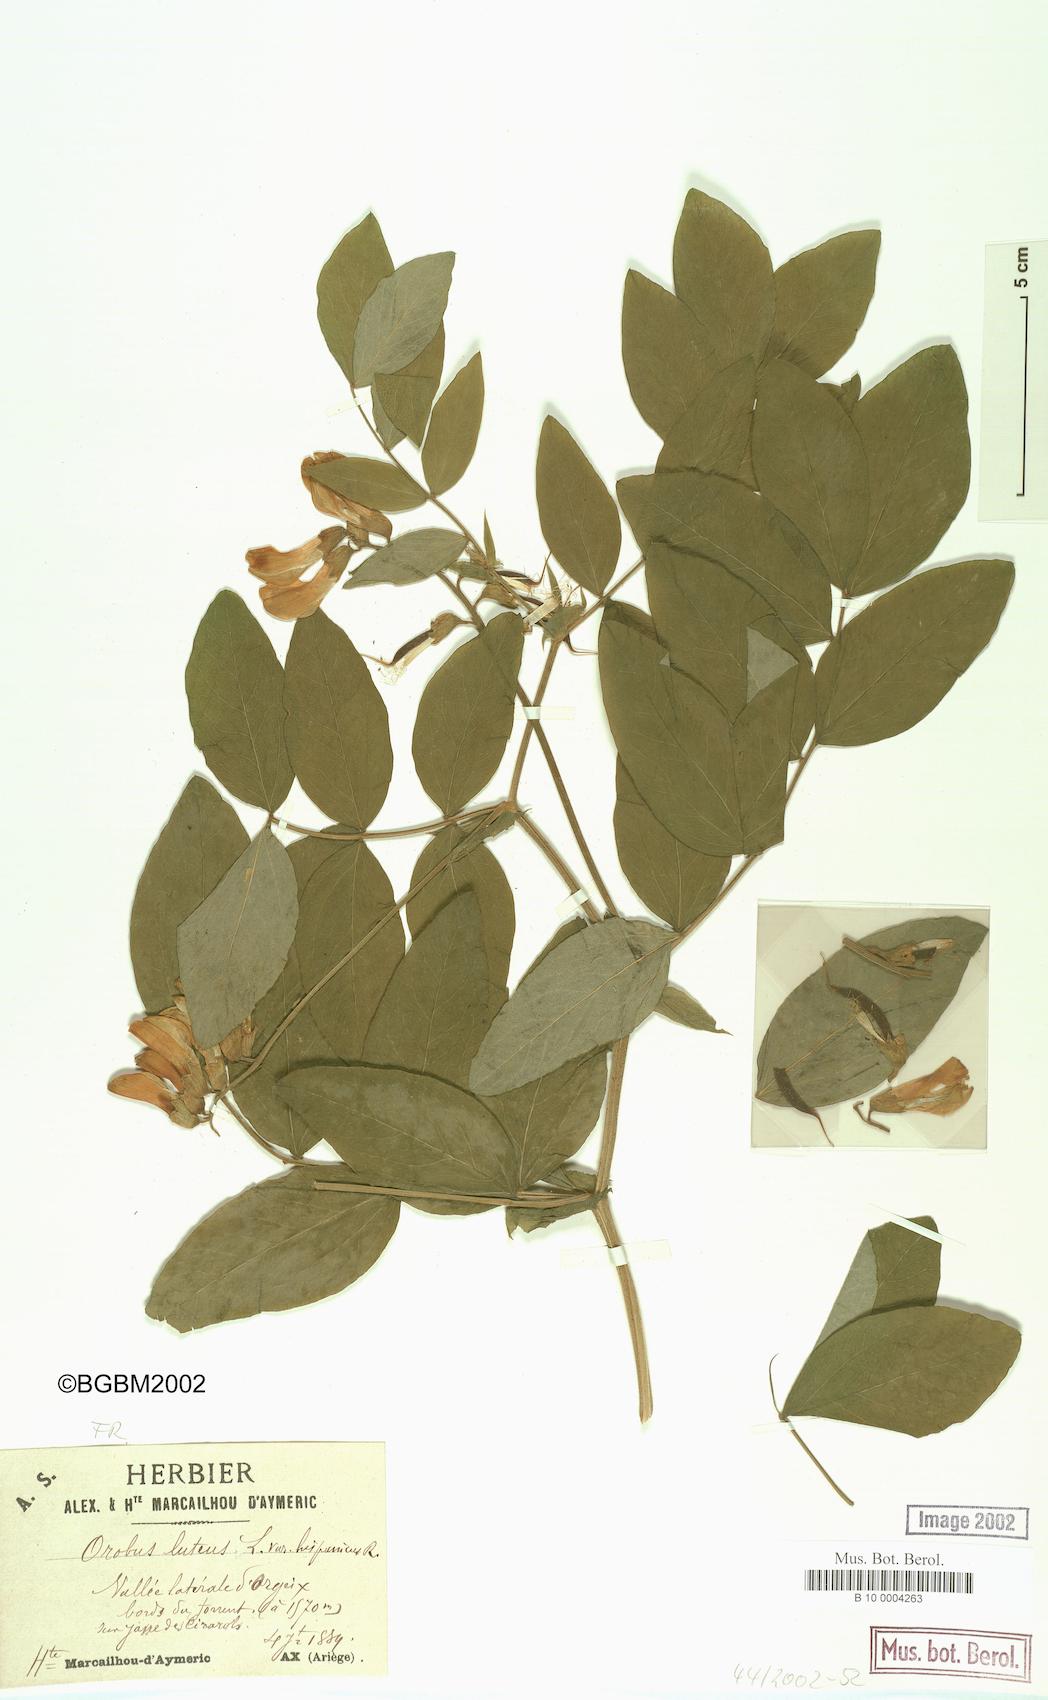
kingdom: Plantae
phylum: Tracheophyta
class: Magnoliopsida
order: Fabales
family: Fabaceae
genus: Lathyrus
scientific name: Lathyrus gmelinii
